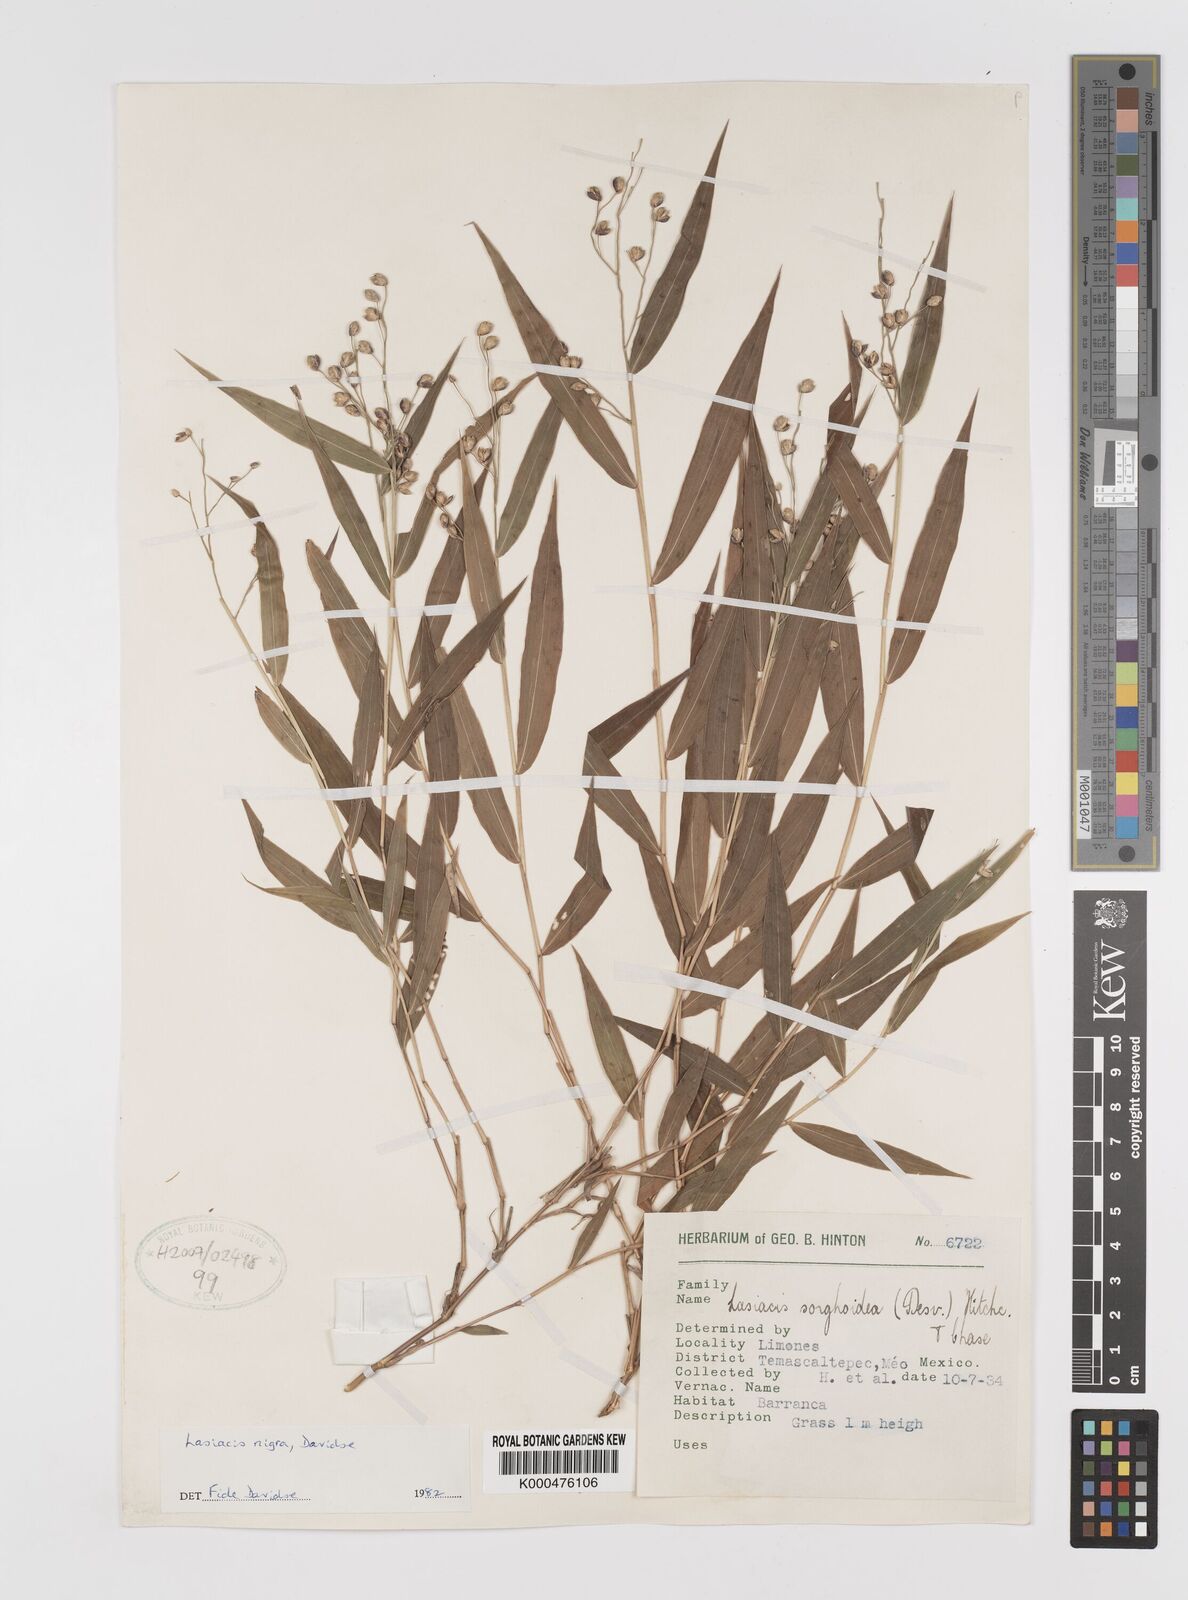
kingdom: Plantae
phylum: Tracheophyta
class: Liliopsida
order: Poales
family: Poaceae
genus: Lasiacis
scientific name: Lasiacis nigra
